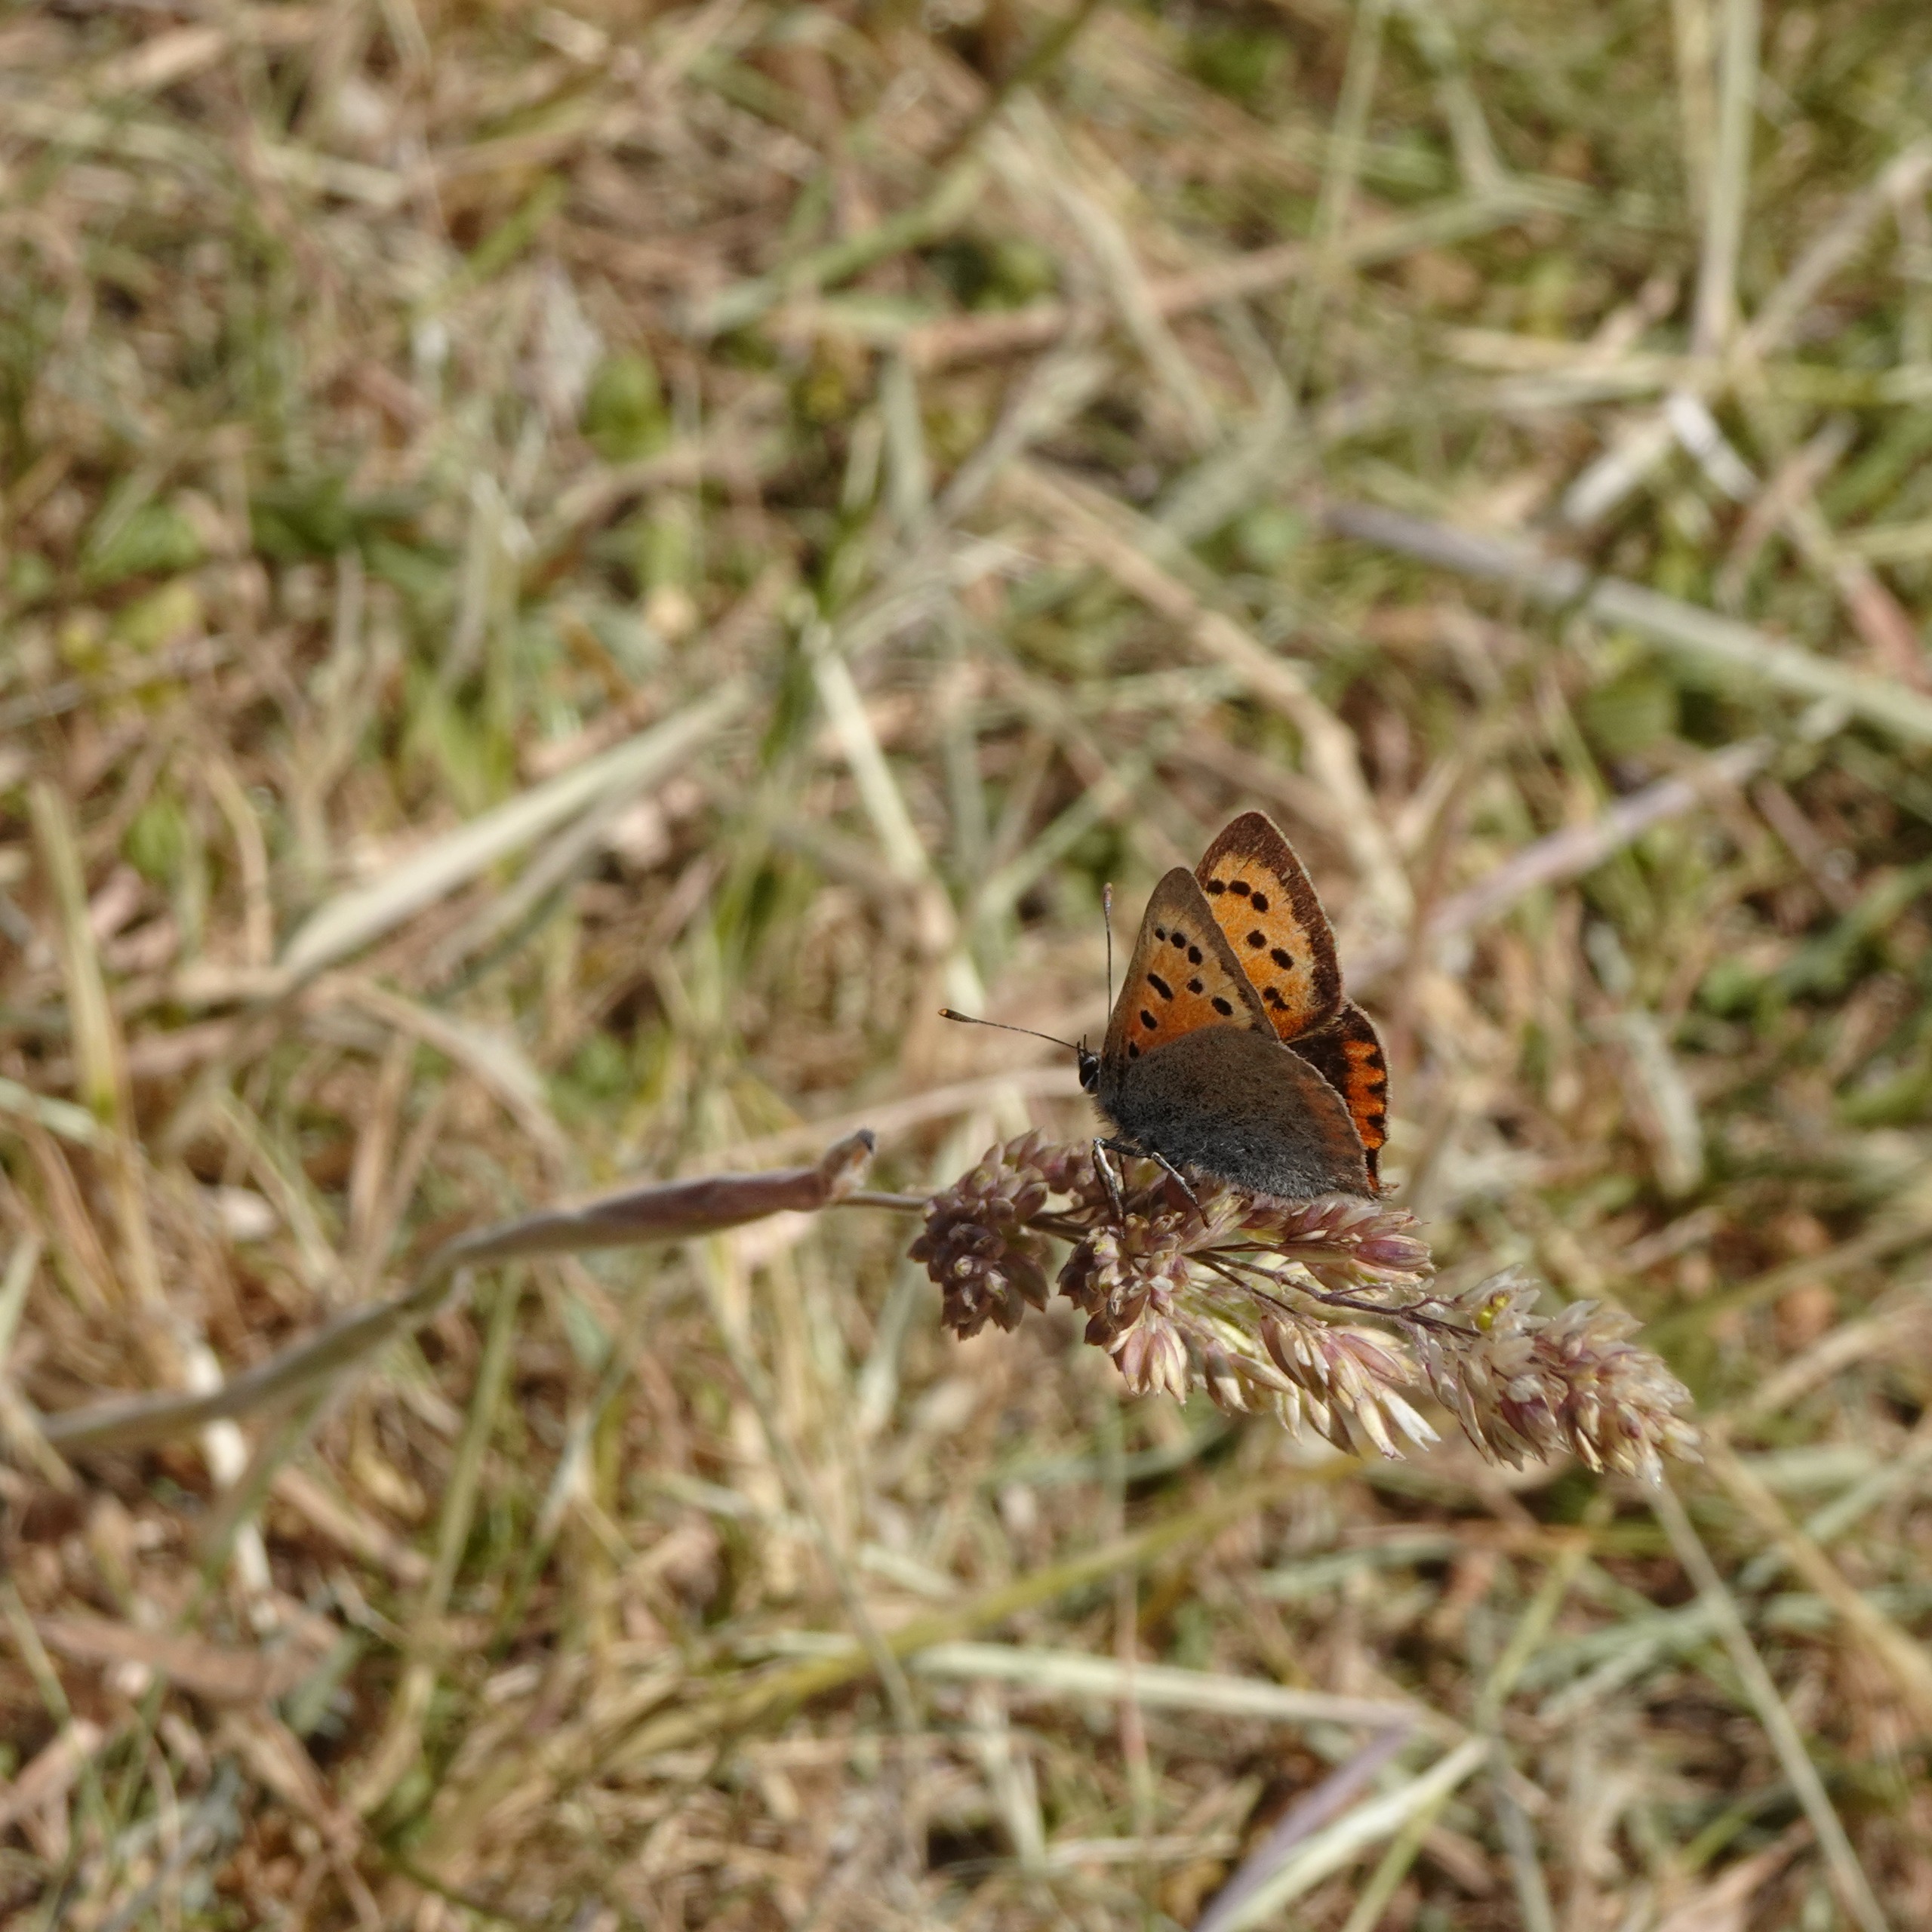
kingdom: Animalia
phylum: Arthropoda
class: Insecta
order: Lepidoptera
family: Lycaenidae
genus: Lycaena
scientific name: Lycaena phlaeas
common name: Lille ildfugl
